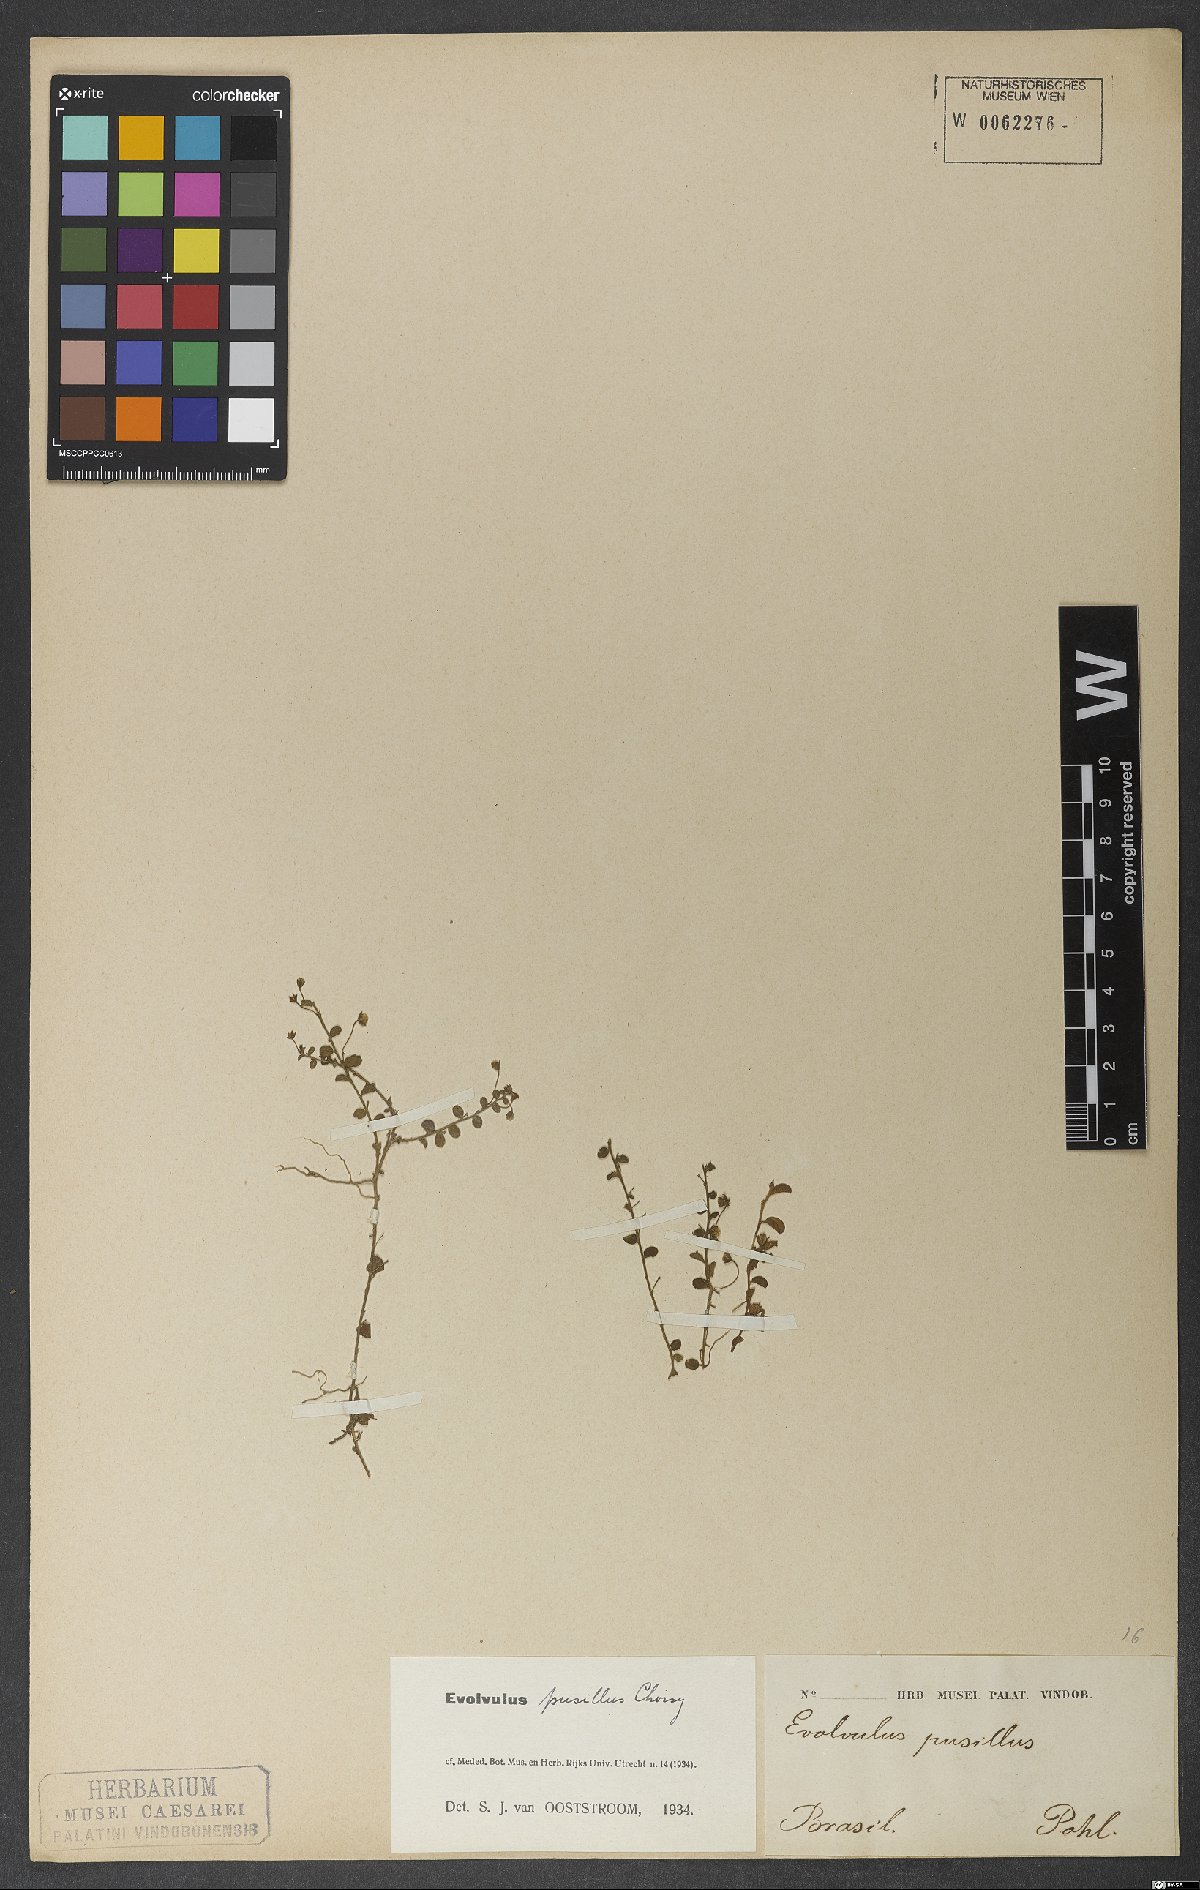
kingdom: Plantae
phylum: Tracheophyta
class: Magnoliopsida
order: Solanales
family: Convolvulaceae
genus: Evolvulus
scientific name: Evolvulus pusillus
